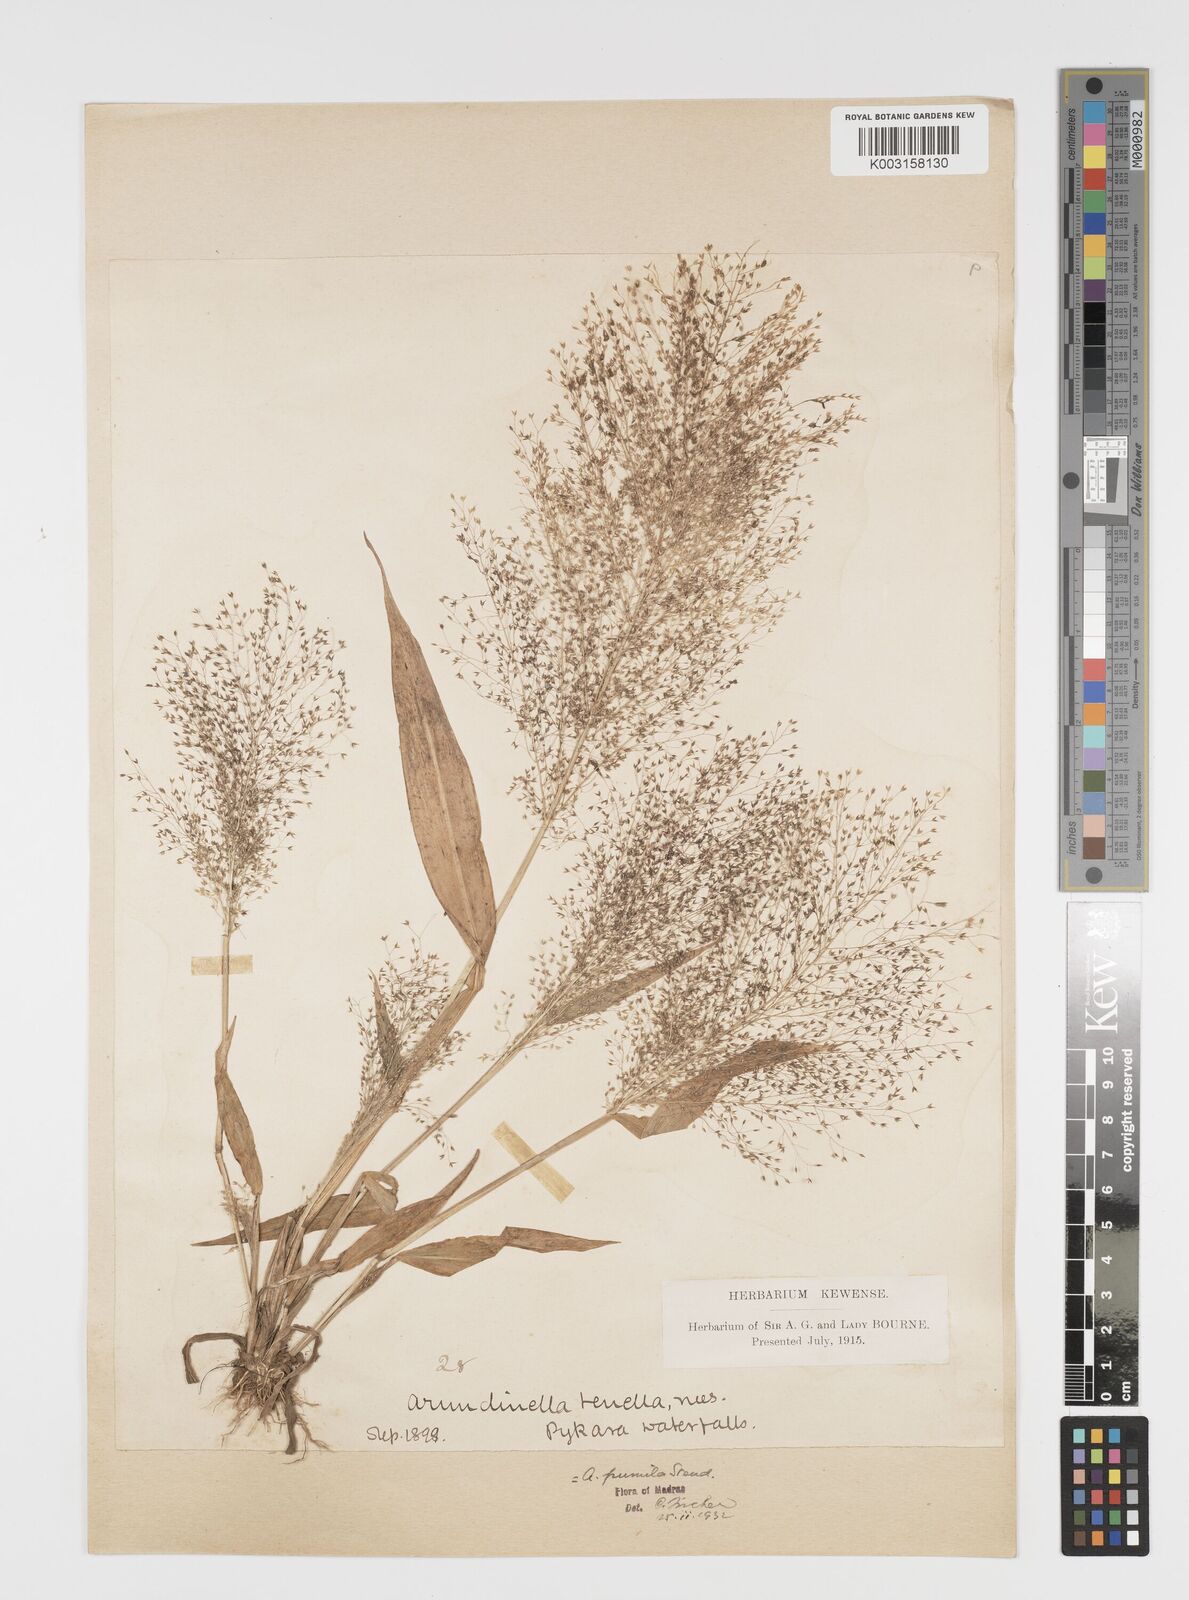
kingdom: Plantae
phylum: Tracheophyta
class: Liliopsida
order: Poales
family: Poaceae
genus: Arundinella
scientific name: Arundinella pumila
